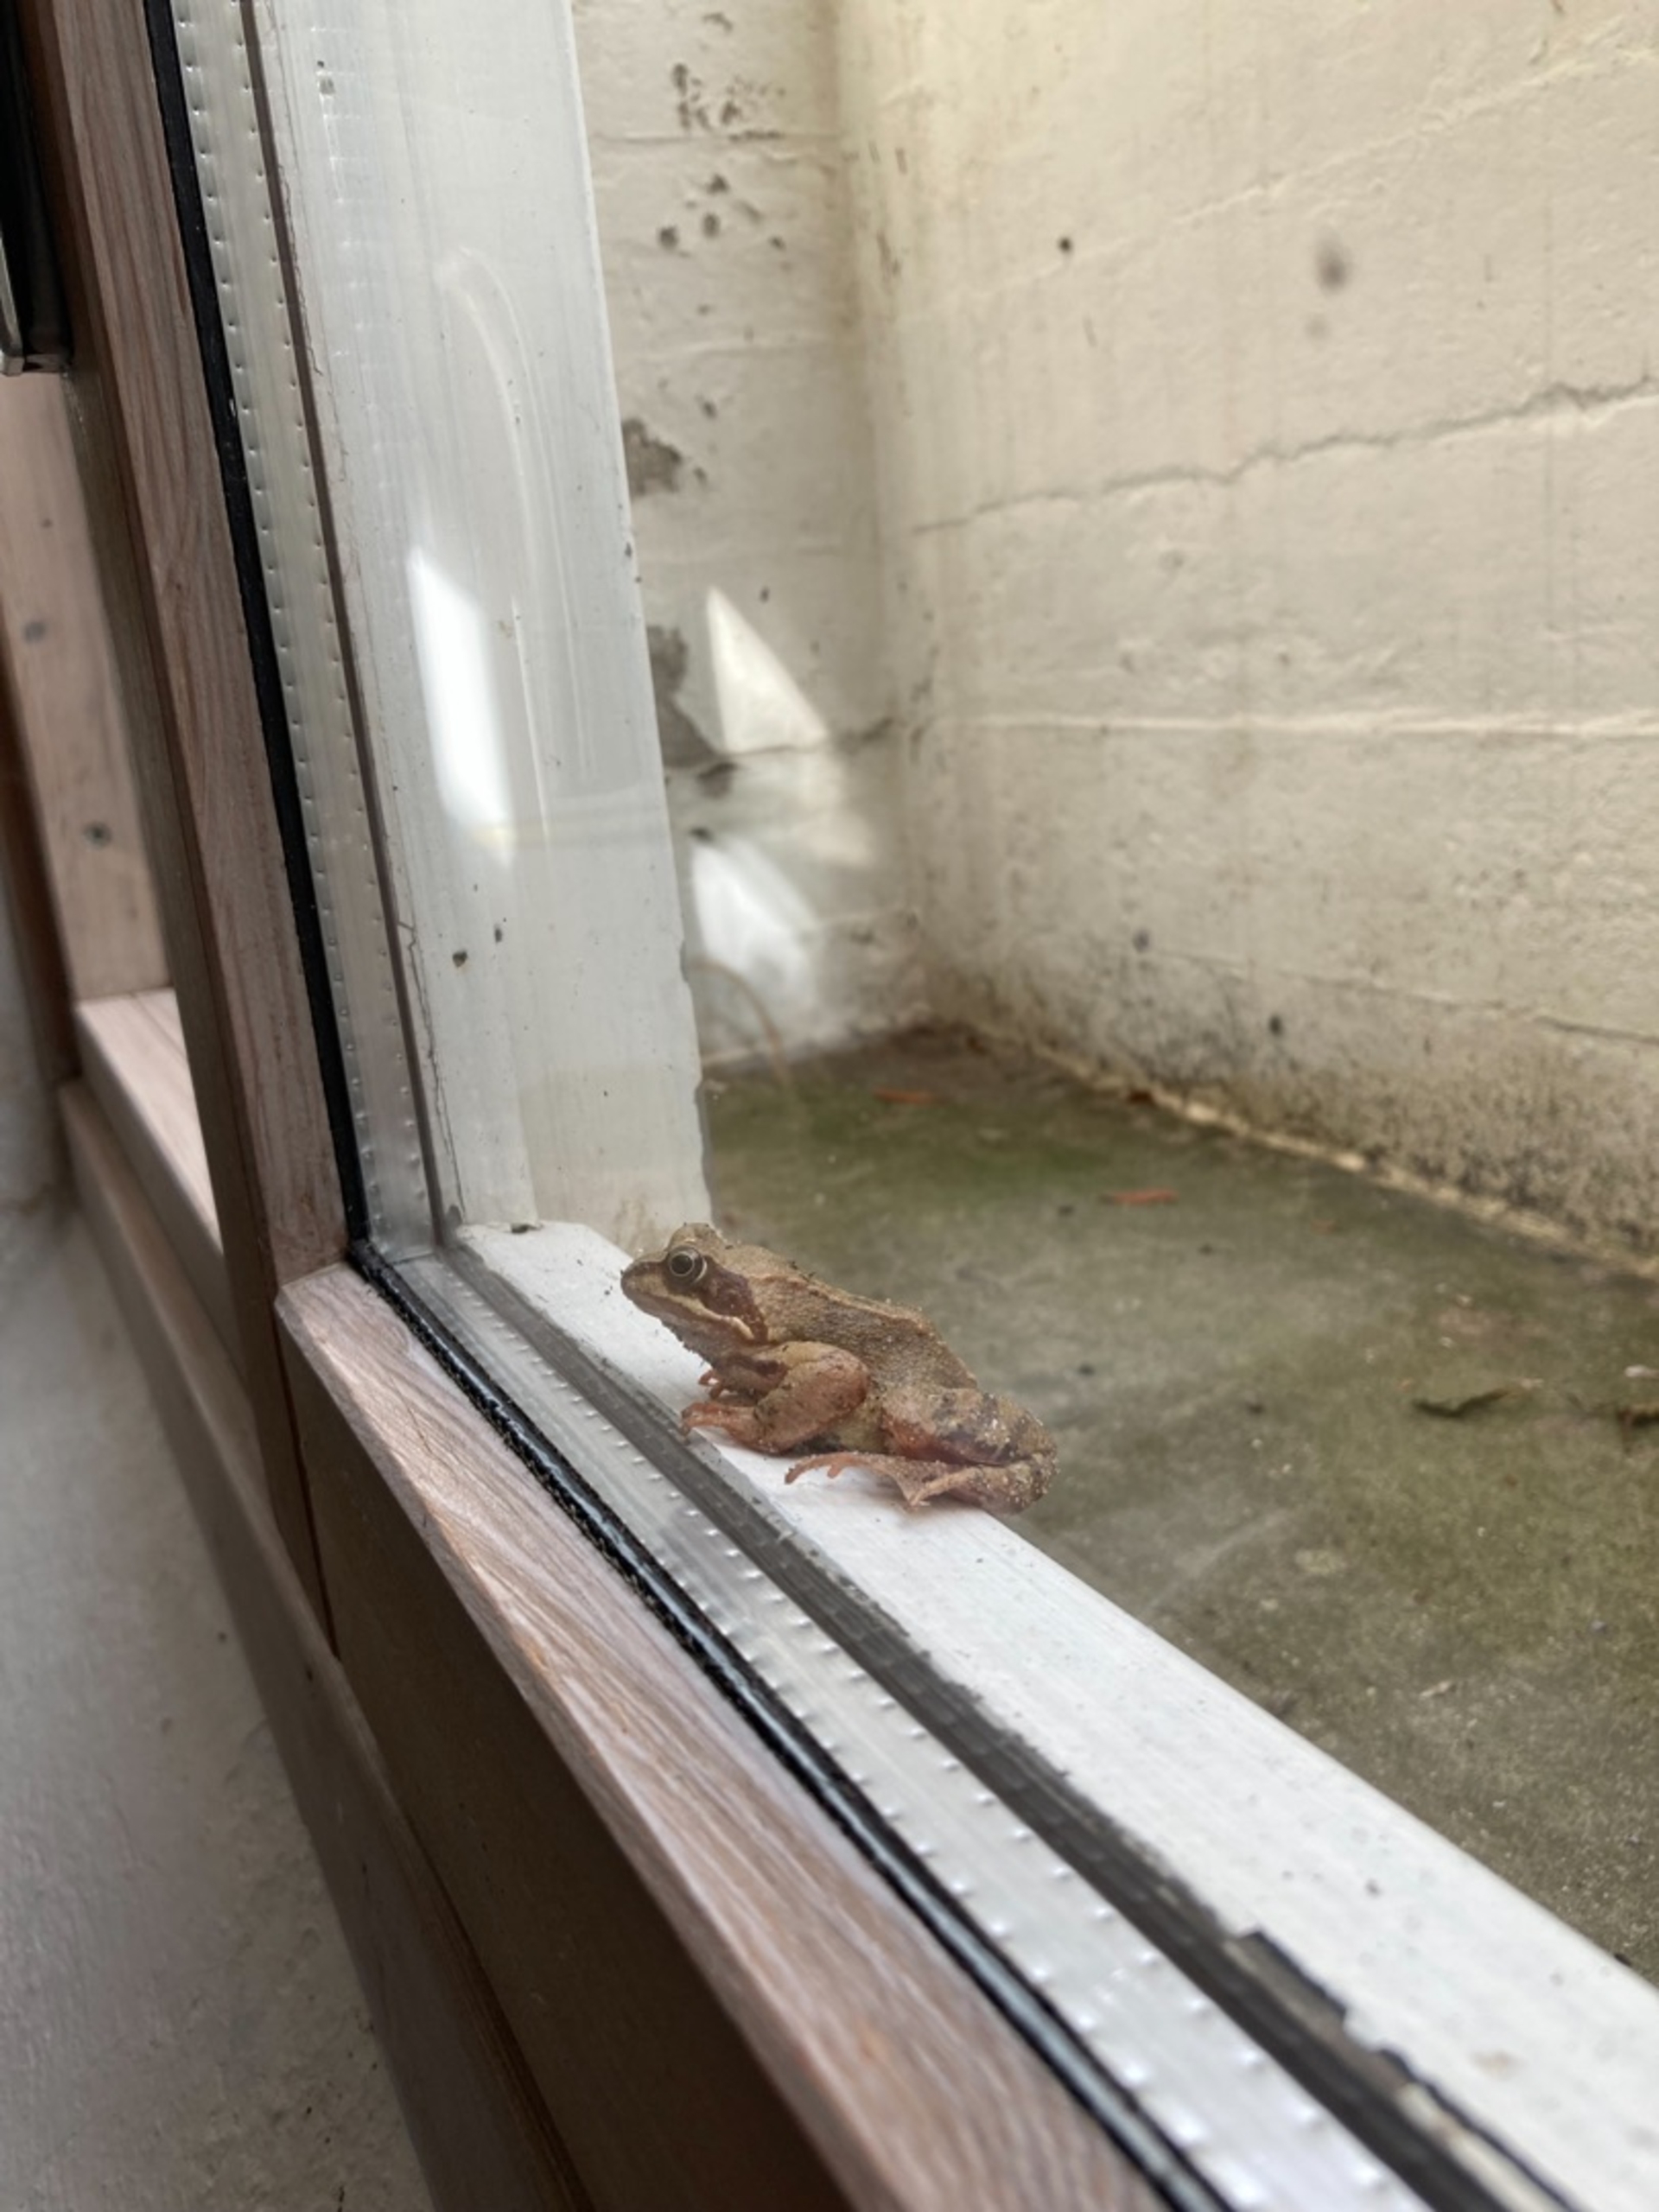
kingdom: Animalia
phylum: Chordata
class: Amphibia
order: Anura
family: Ranidae
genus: Rana
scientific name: Rana temporaria
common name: Butsnudet frø
